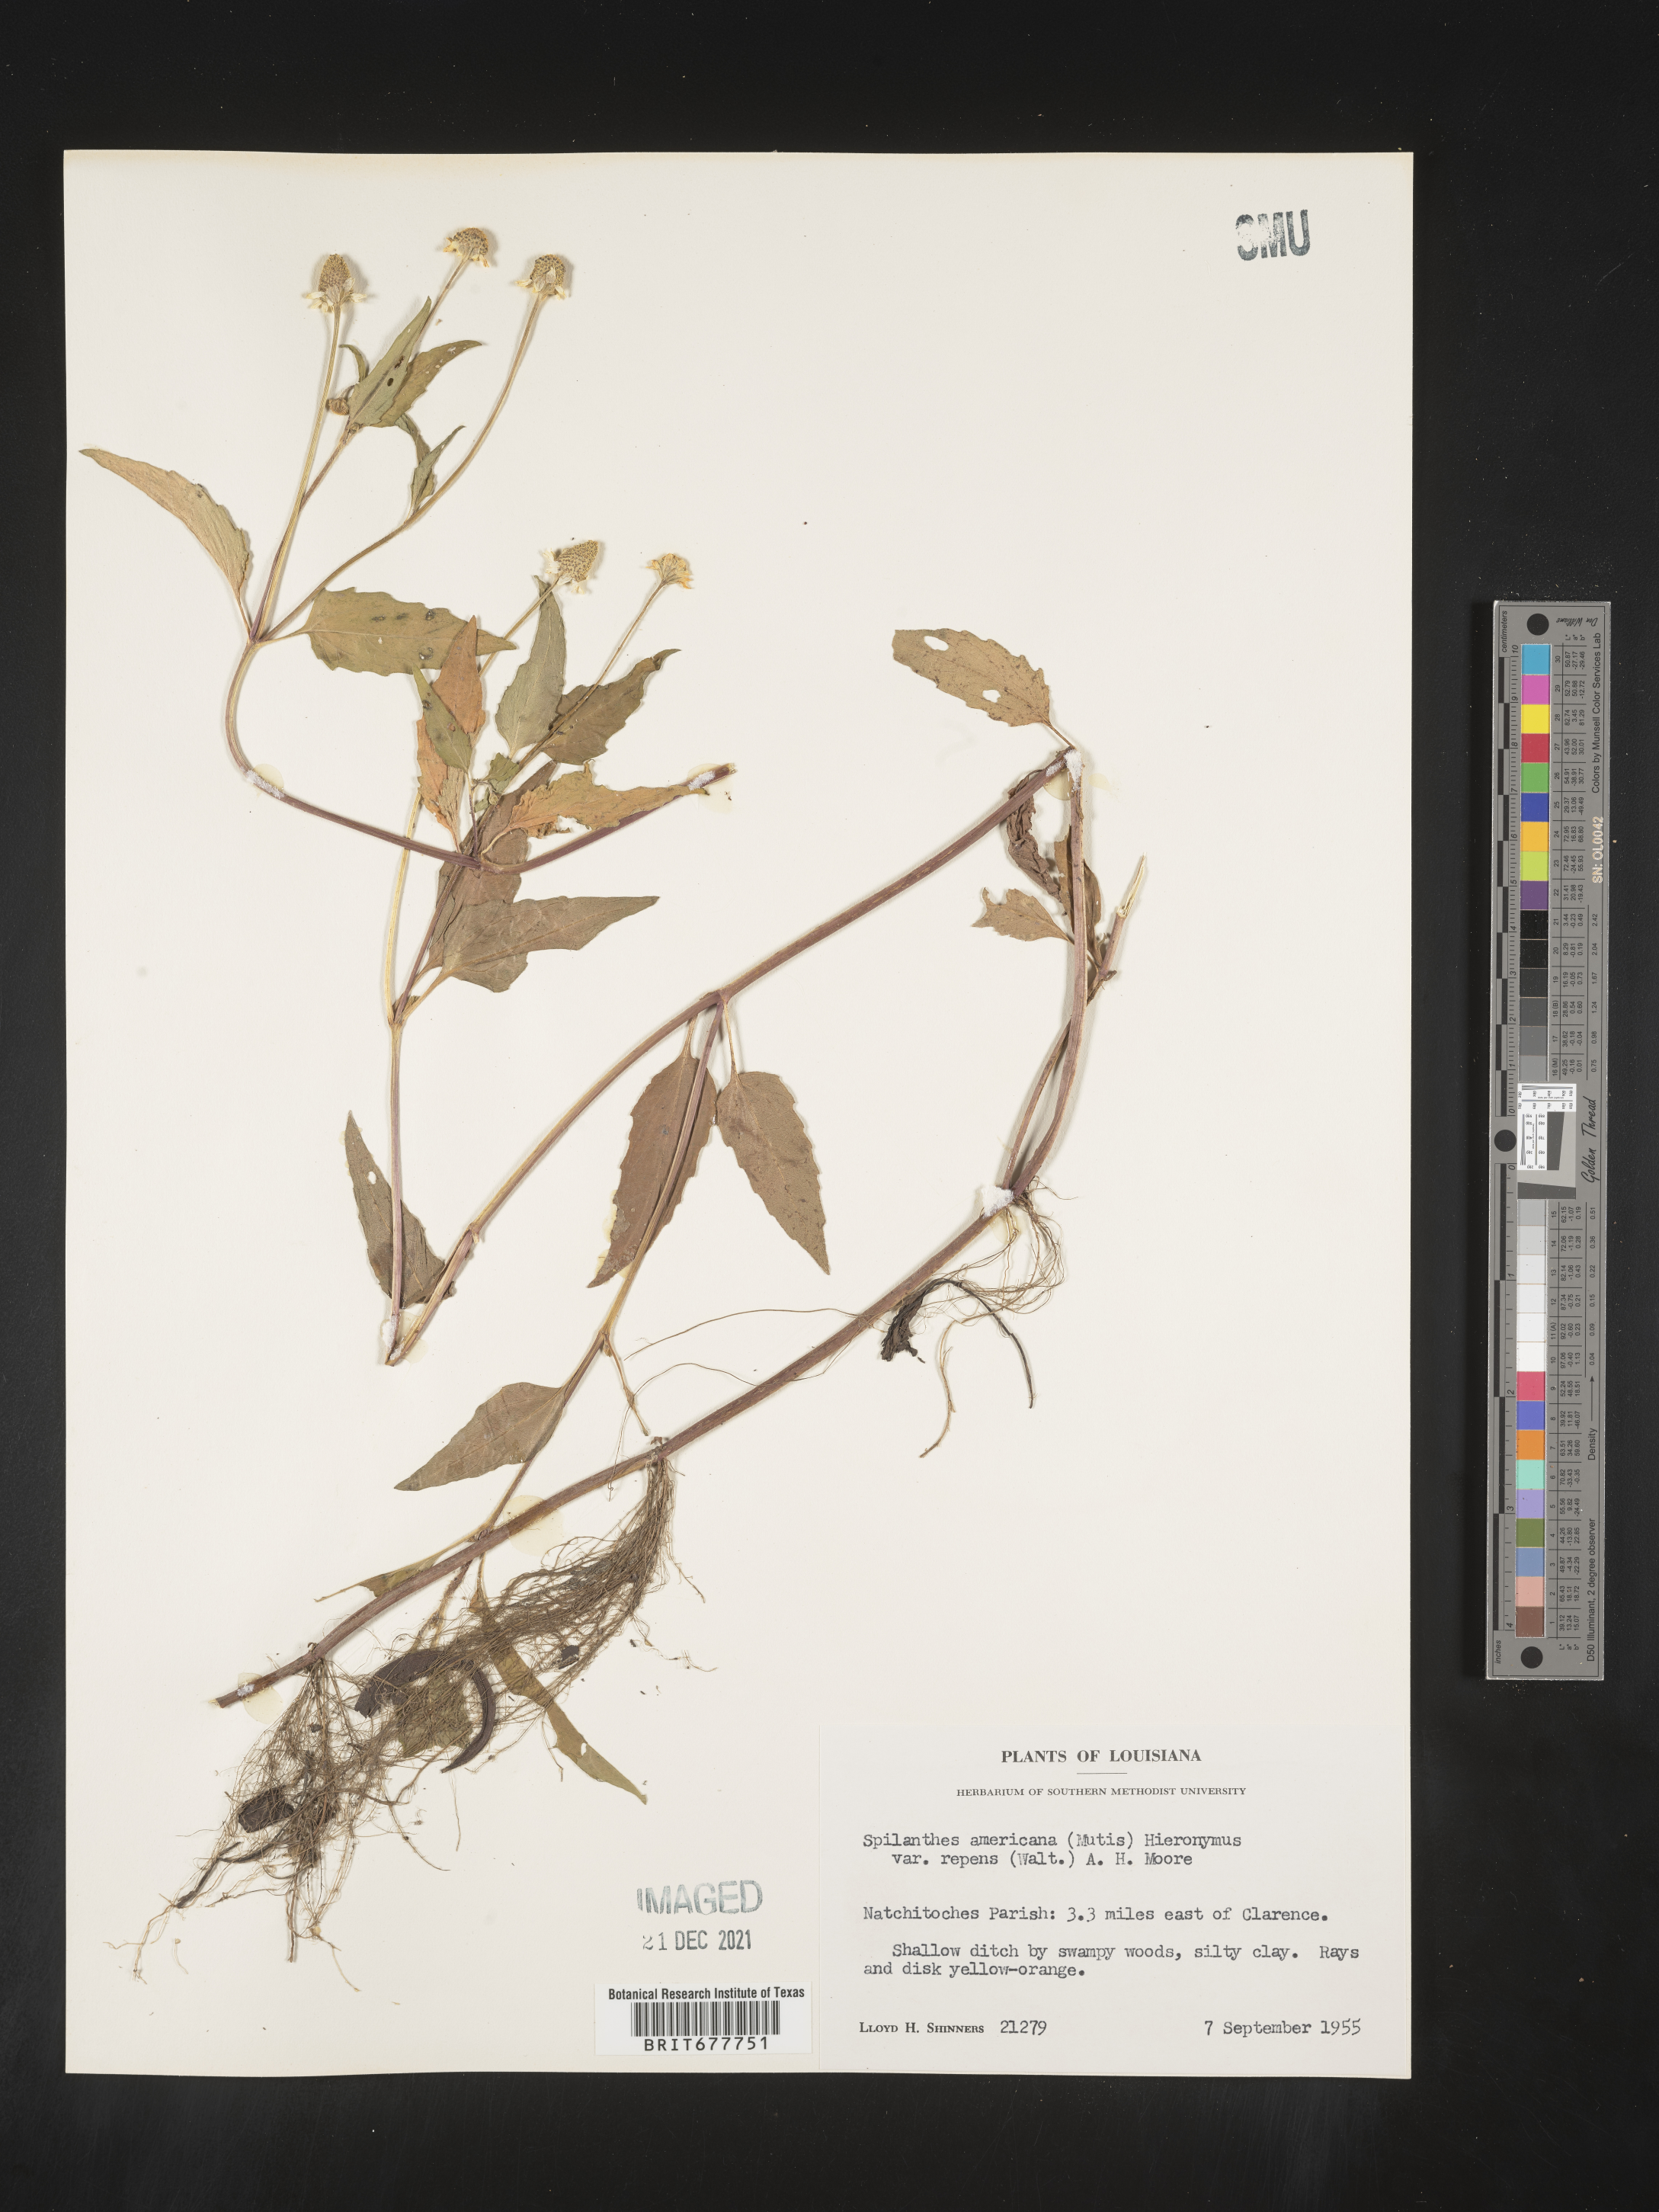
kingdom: Plantae
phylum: Tracheophyta
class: Magnoliopsida
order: Asterales
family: Asteraceae
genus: Spilanthes
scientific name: Spilanthes
